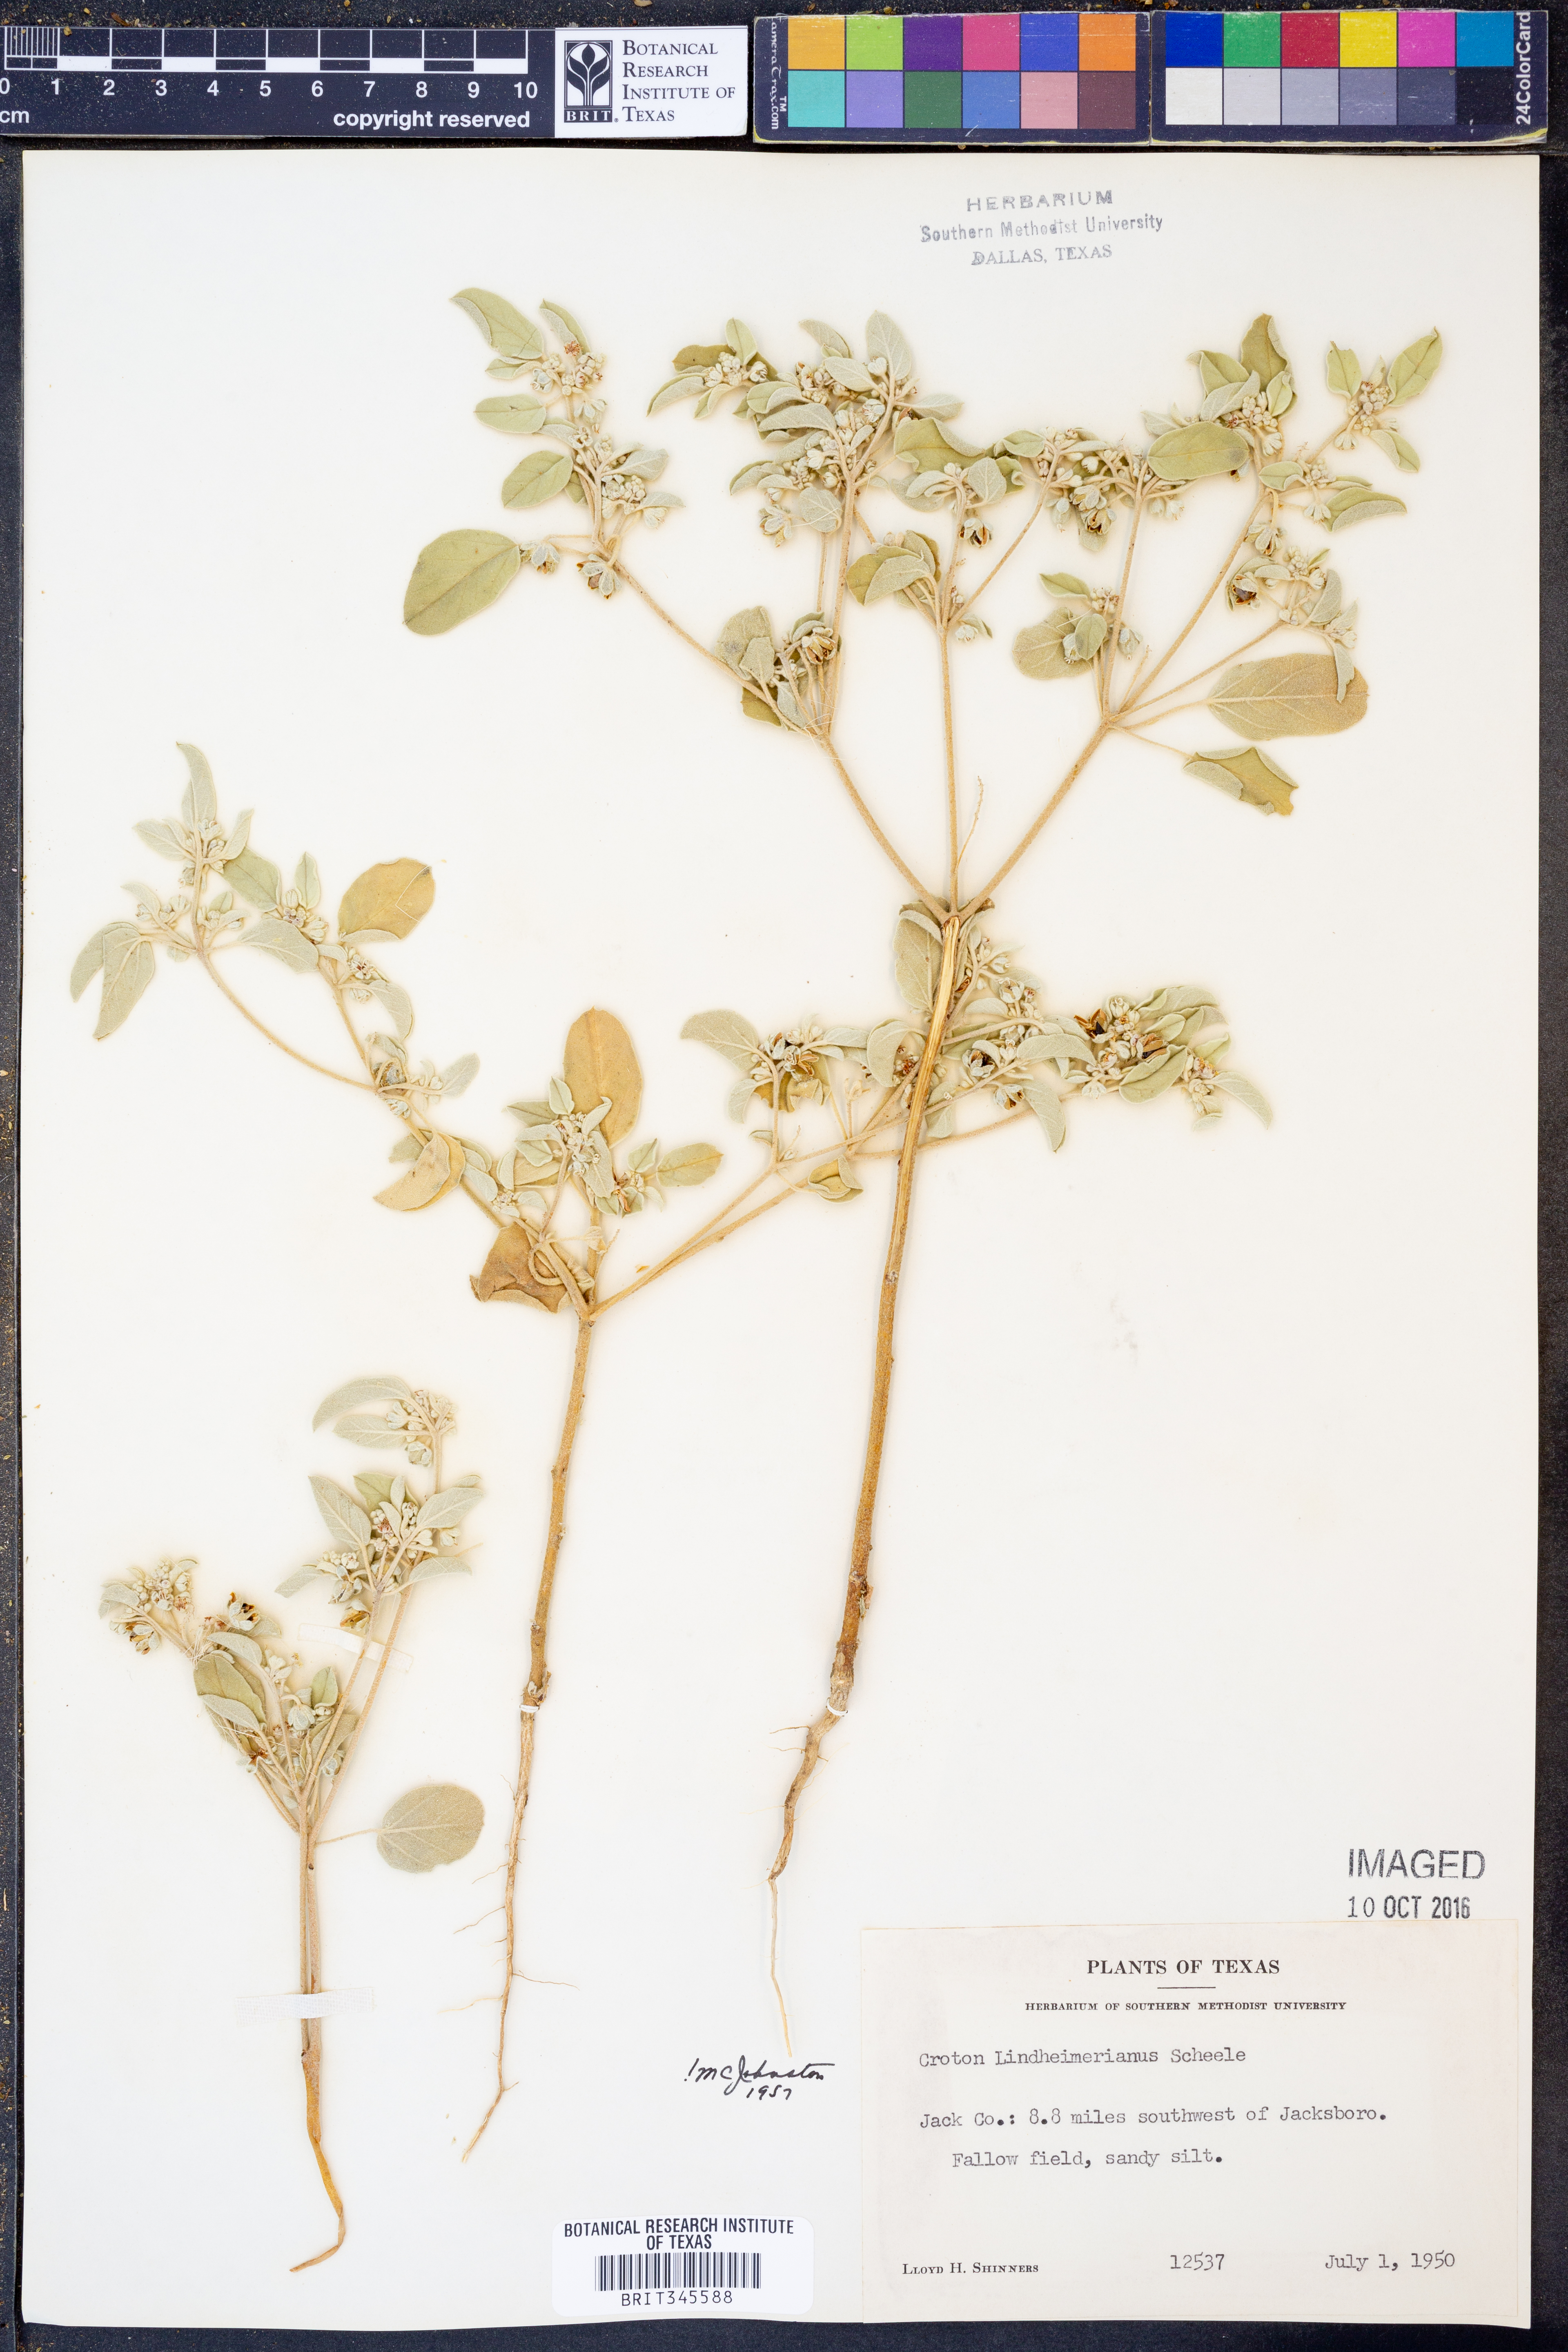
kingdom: Plantae
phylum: Tracheophyta
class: Magnoliopsida
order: Malpighiales
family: Euphorbiaceae
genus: Croton
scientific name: Croton lindheimerianus
